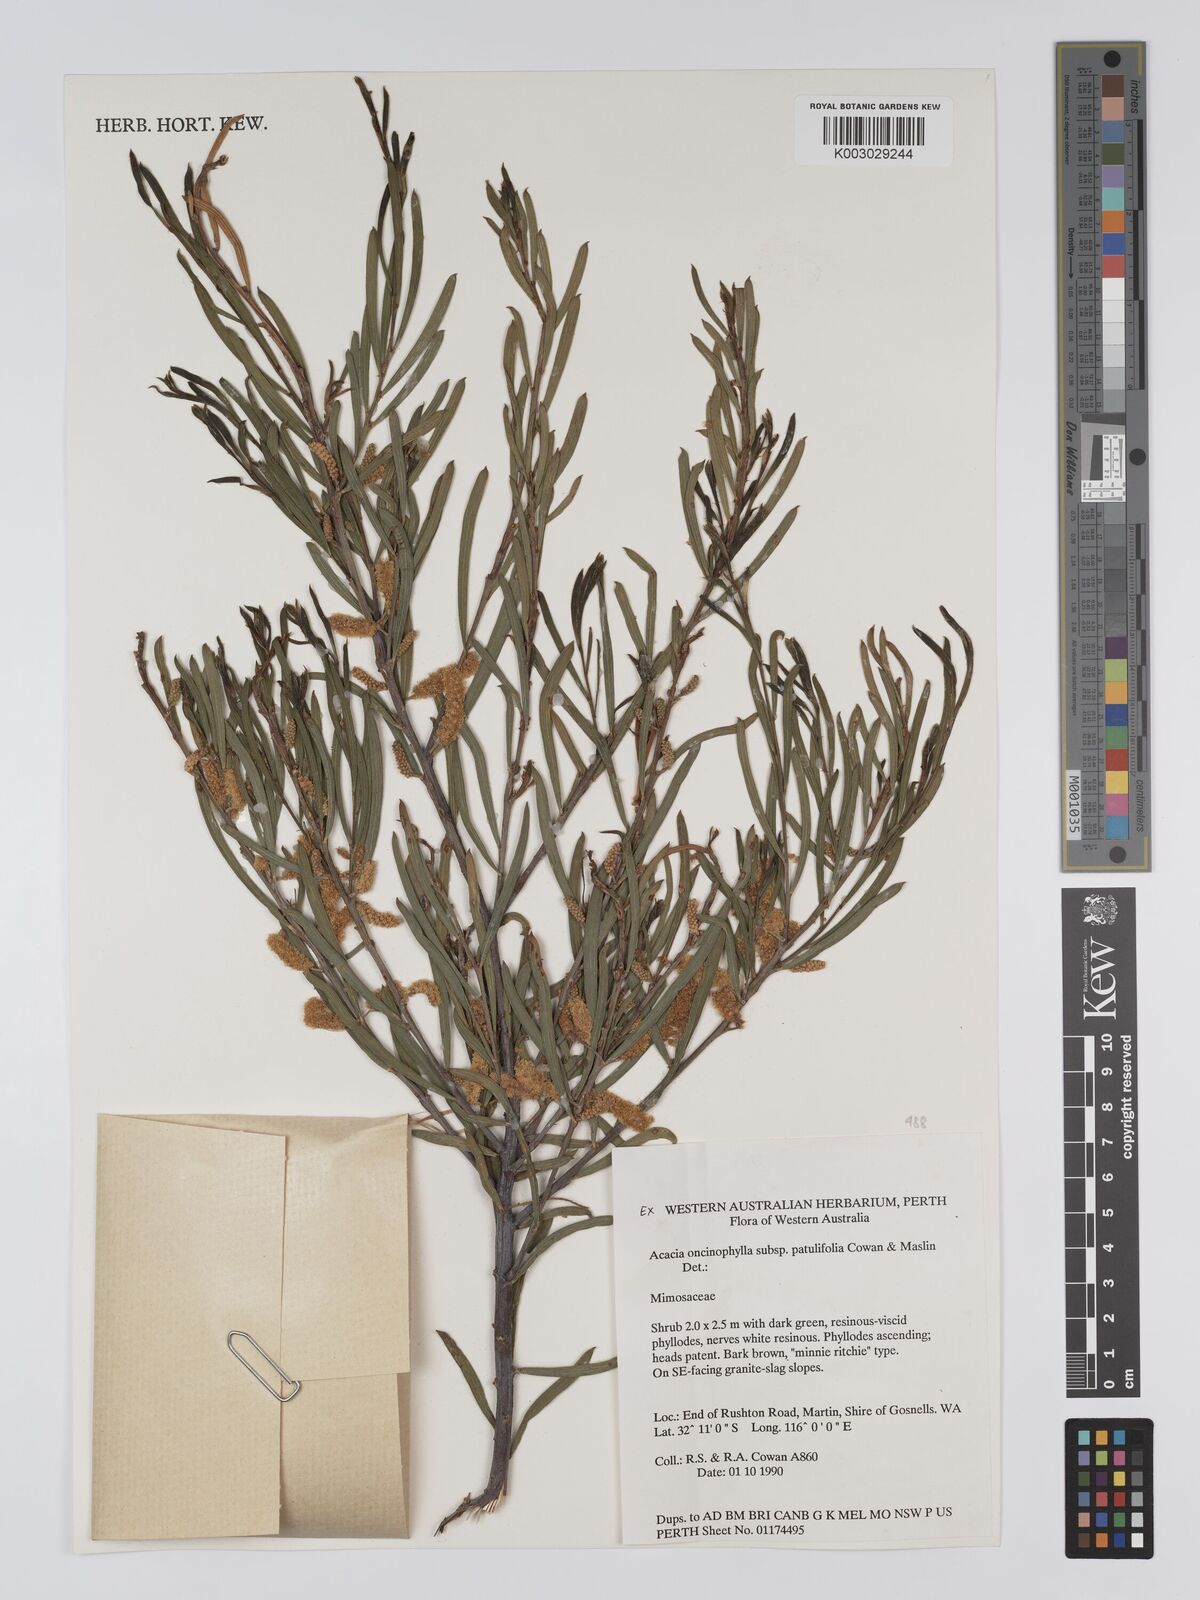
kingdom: Plantae
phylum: Tracheophyta
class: Magnoliopsida
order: Fabales
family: Fabaceae
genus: Acacia
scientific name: Acacia oncinophylla
